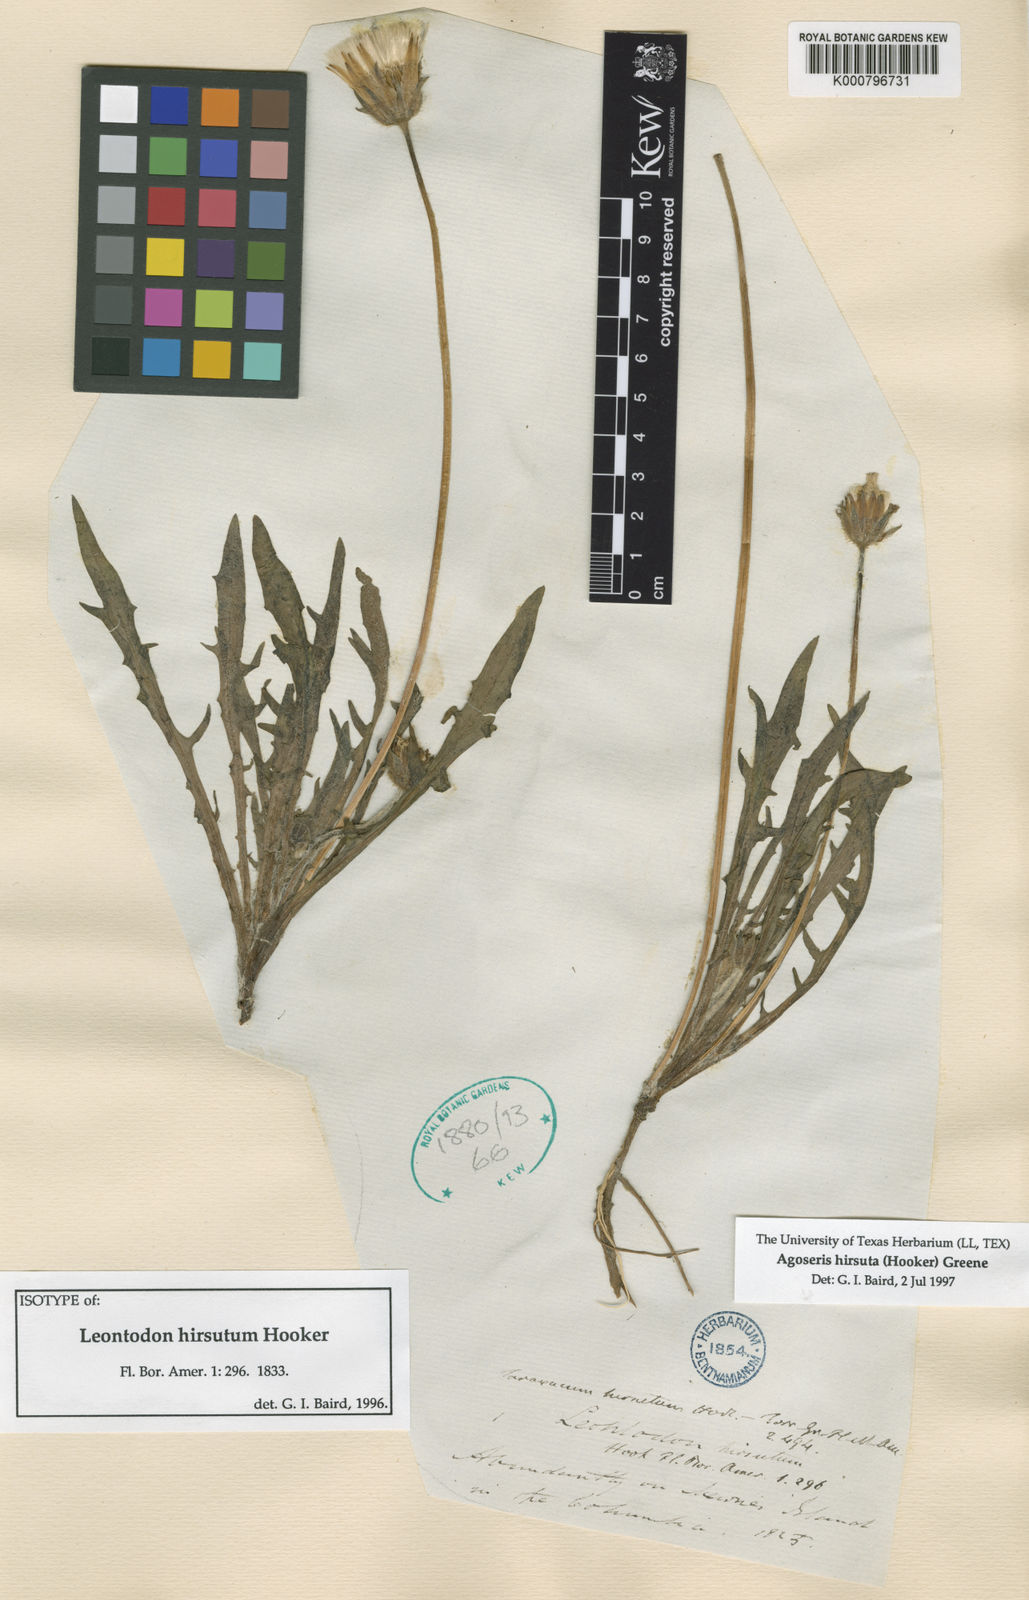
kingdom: Plantae
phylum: Tracheophyta
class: Magnoliopsida
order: Asterales
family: Asteraceae
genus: Agoseris
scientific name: Agoseris hirsuta
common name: Coast range agoseris
